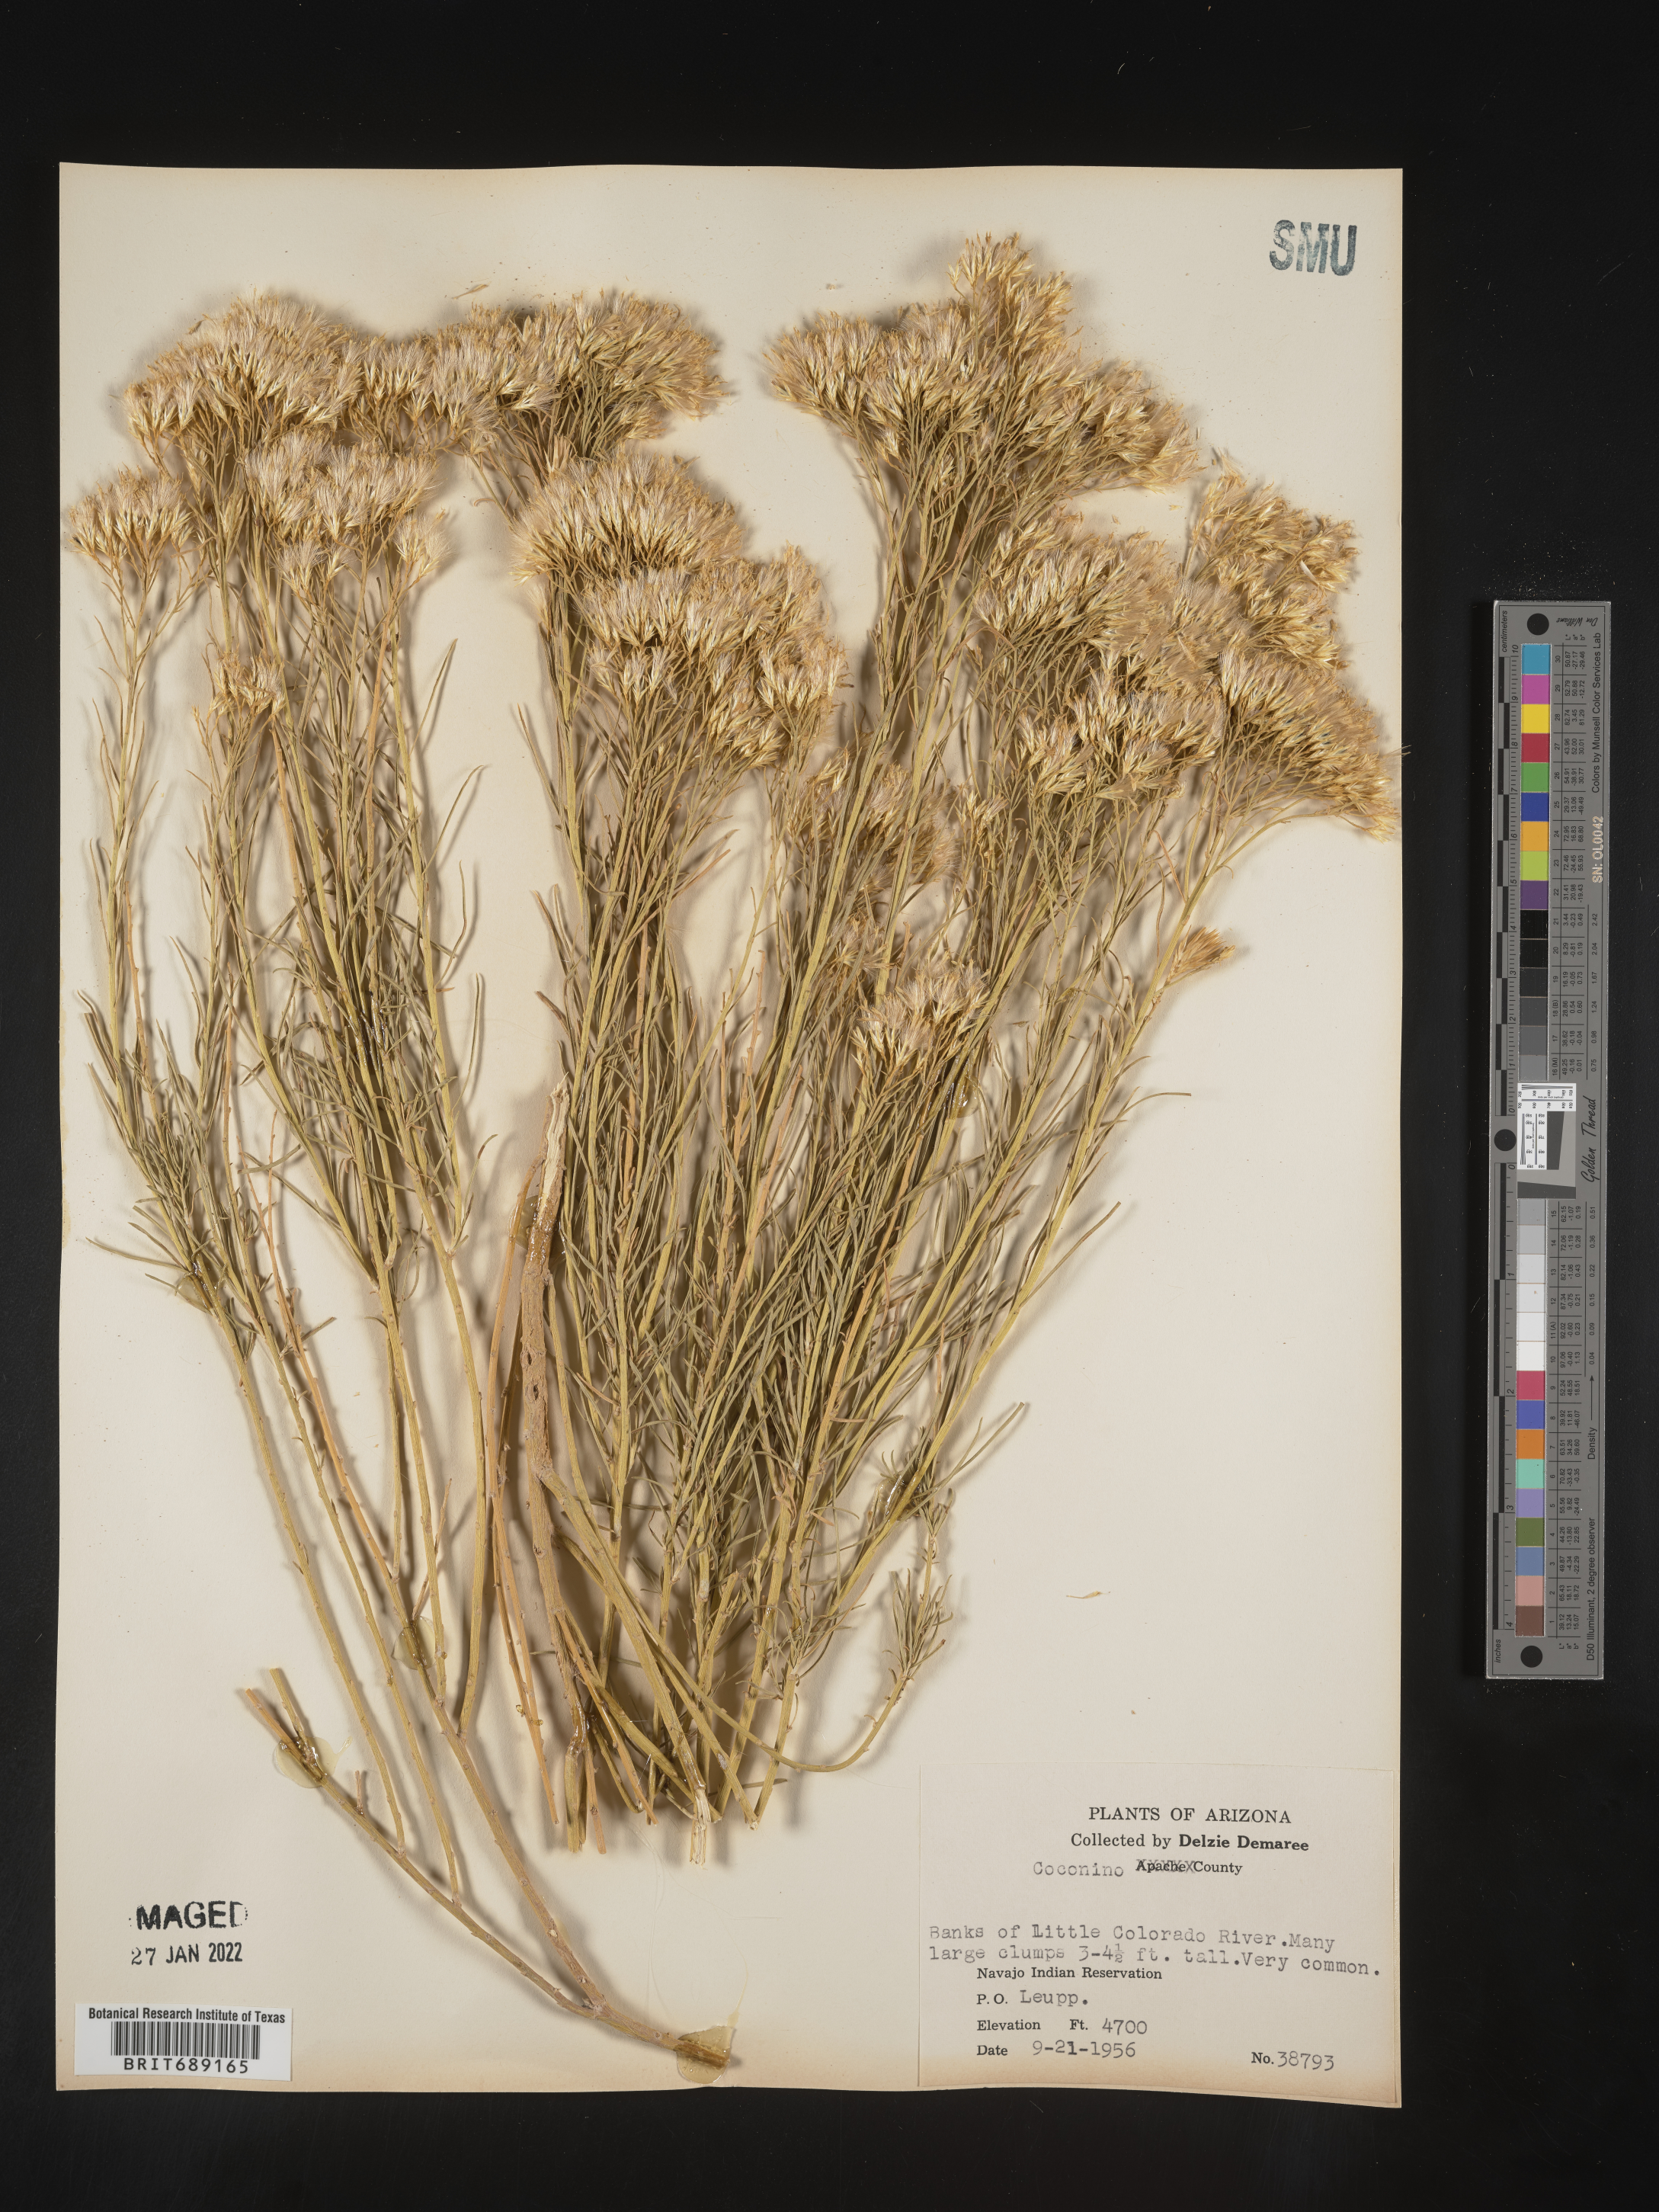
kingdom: Plantae
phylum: Tracheophyta
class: Magnoliopsida
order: Asterales
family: Asteraceae
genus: Chrysothamnus
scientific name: Chrysothamnus
